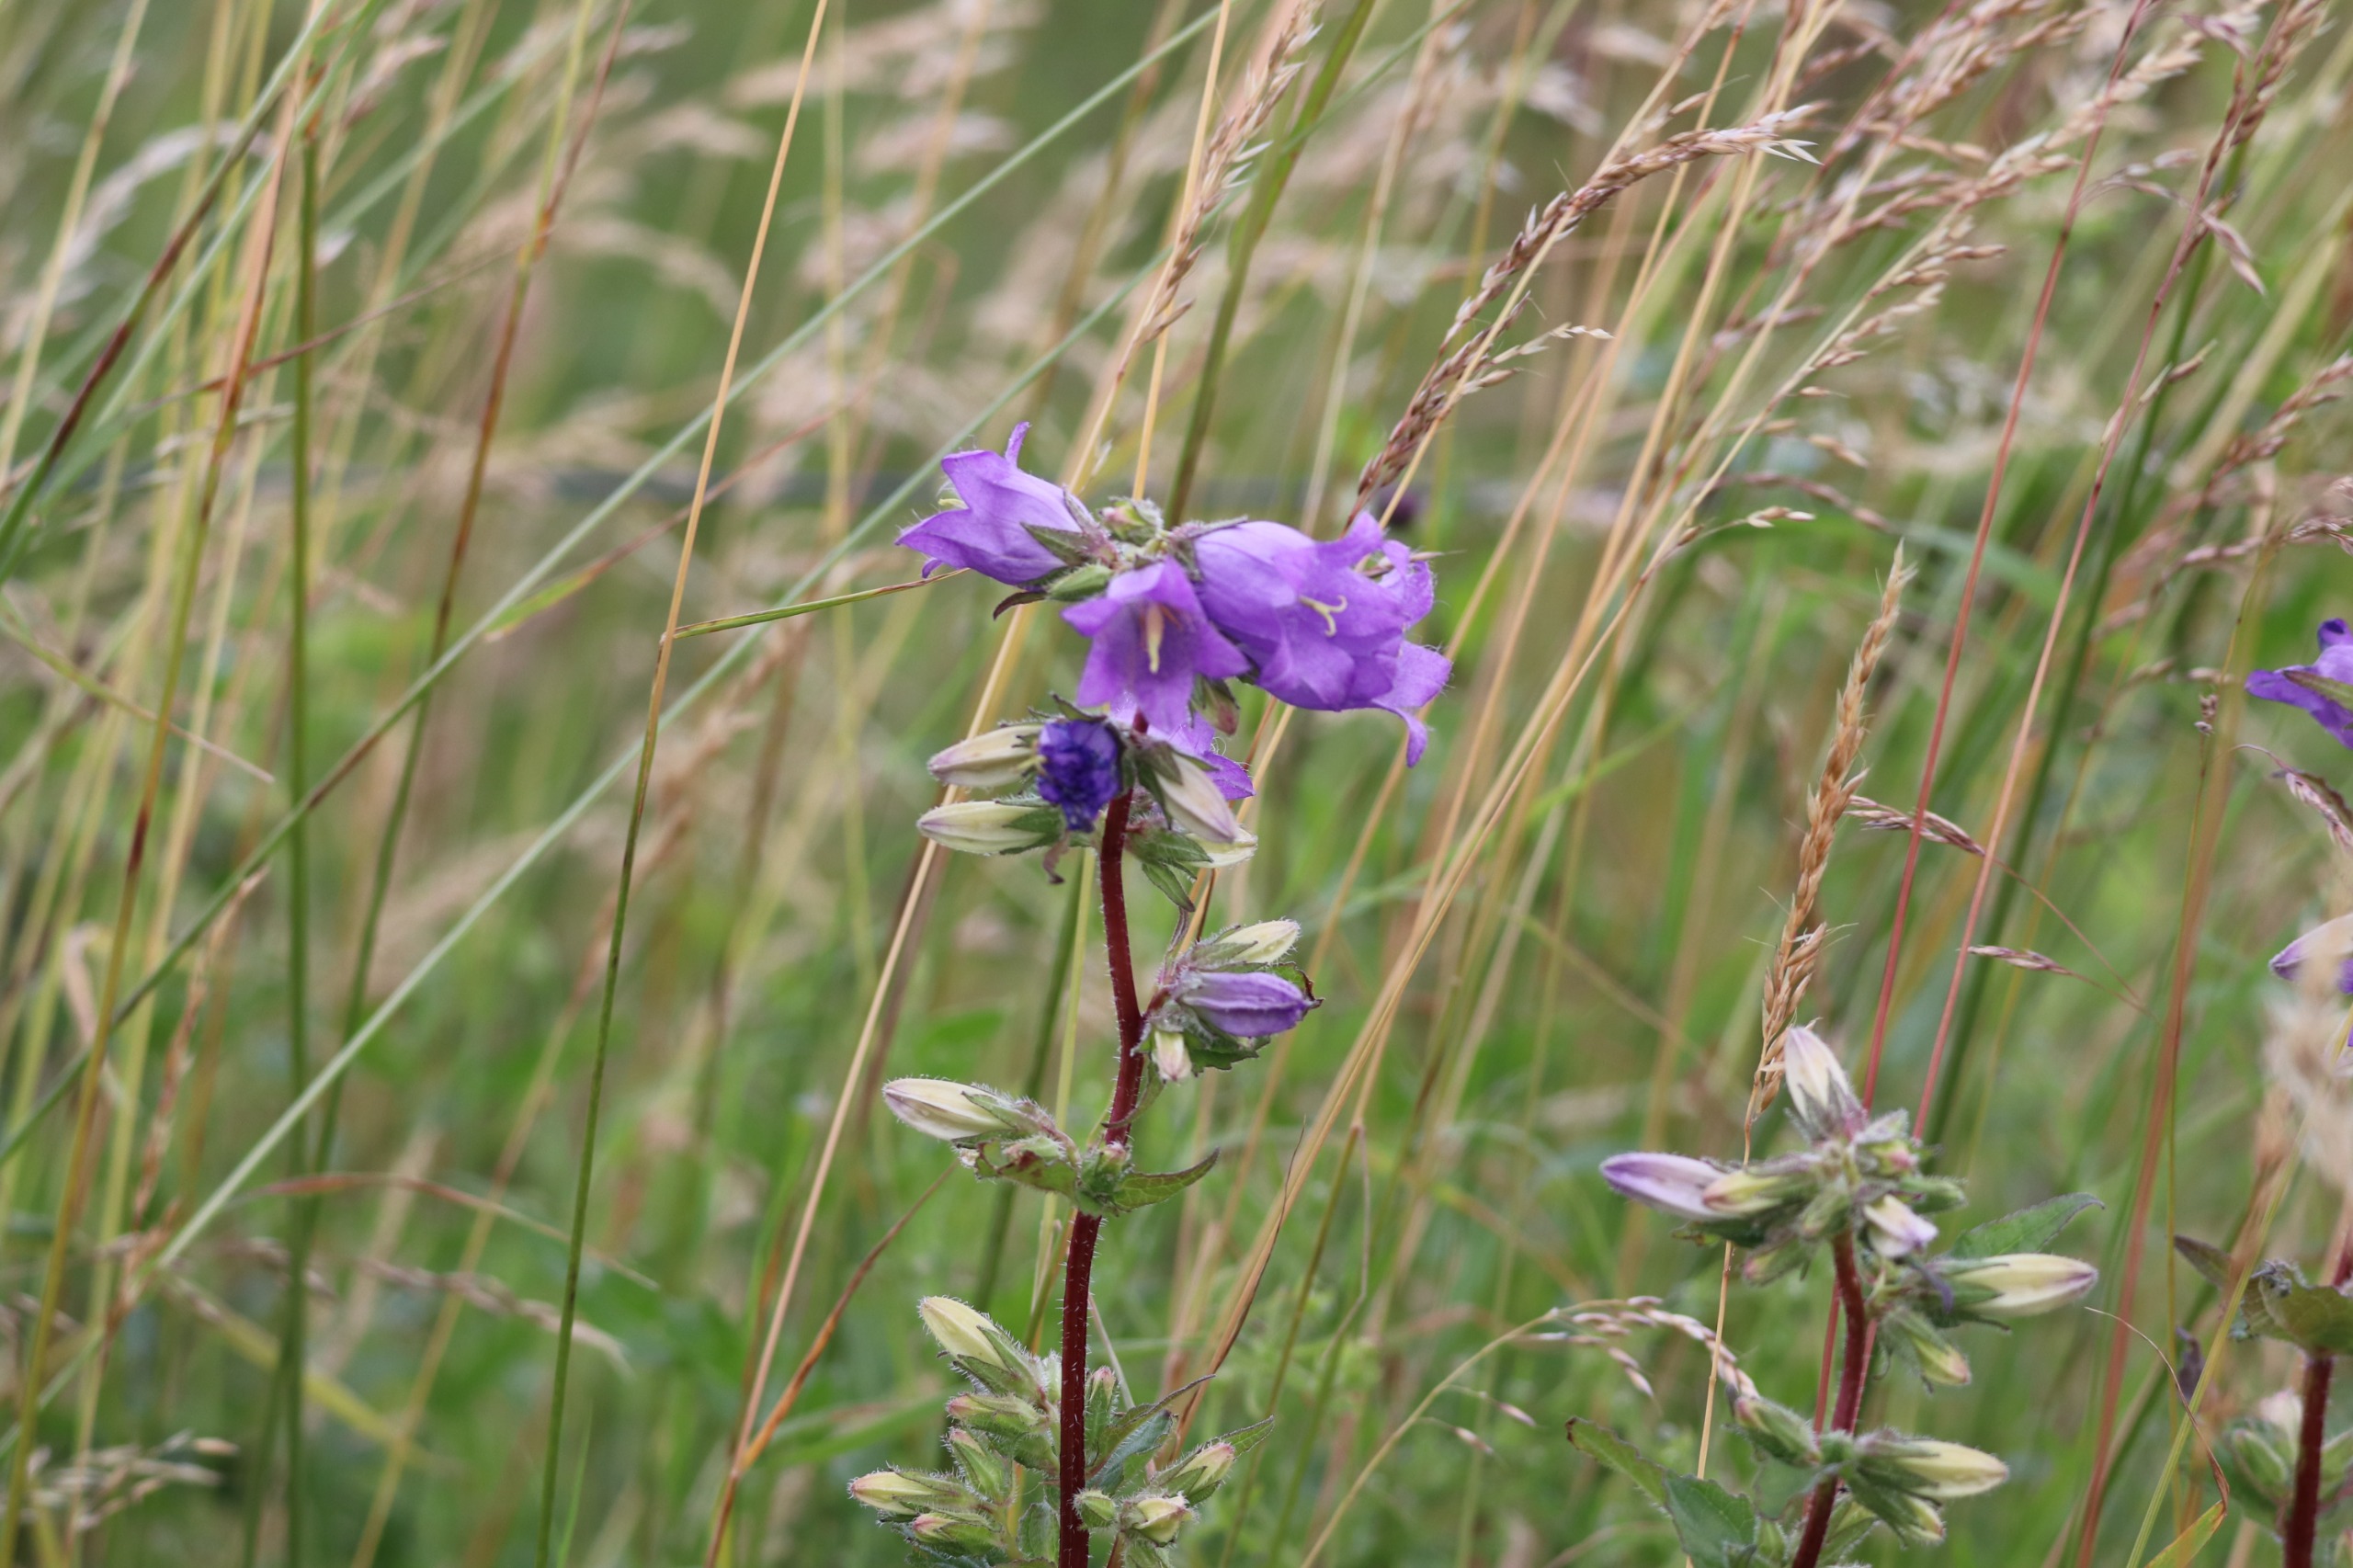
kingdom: Plantae
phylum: Tracheophyta
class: Magnoliopsida
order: Asterales
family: Campanulaceae
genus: Campanula
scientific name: Campanula trachelium
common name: Nælde-klokke
